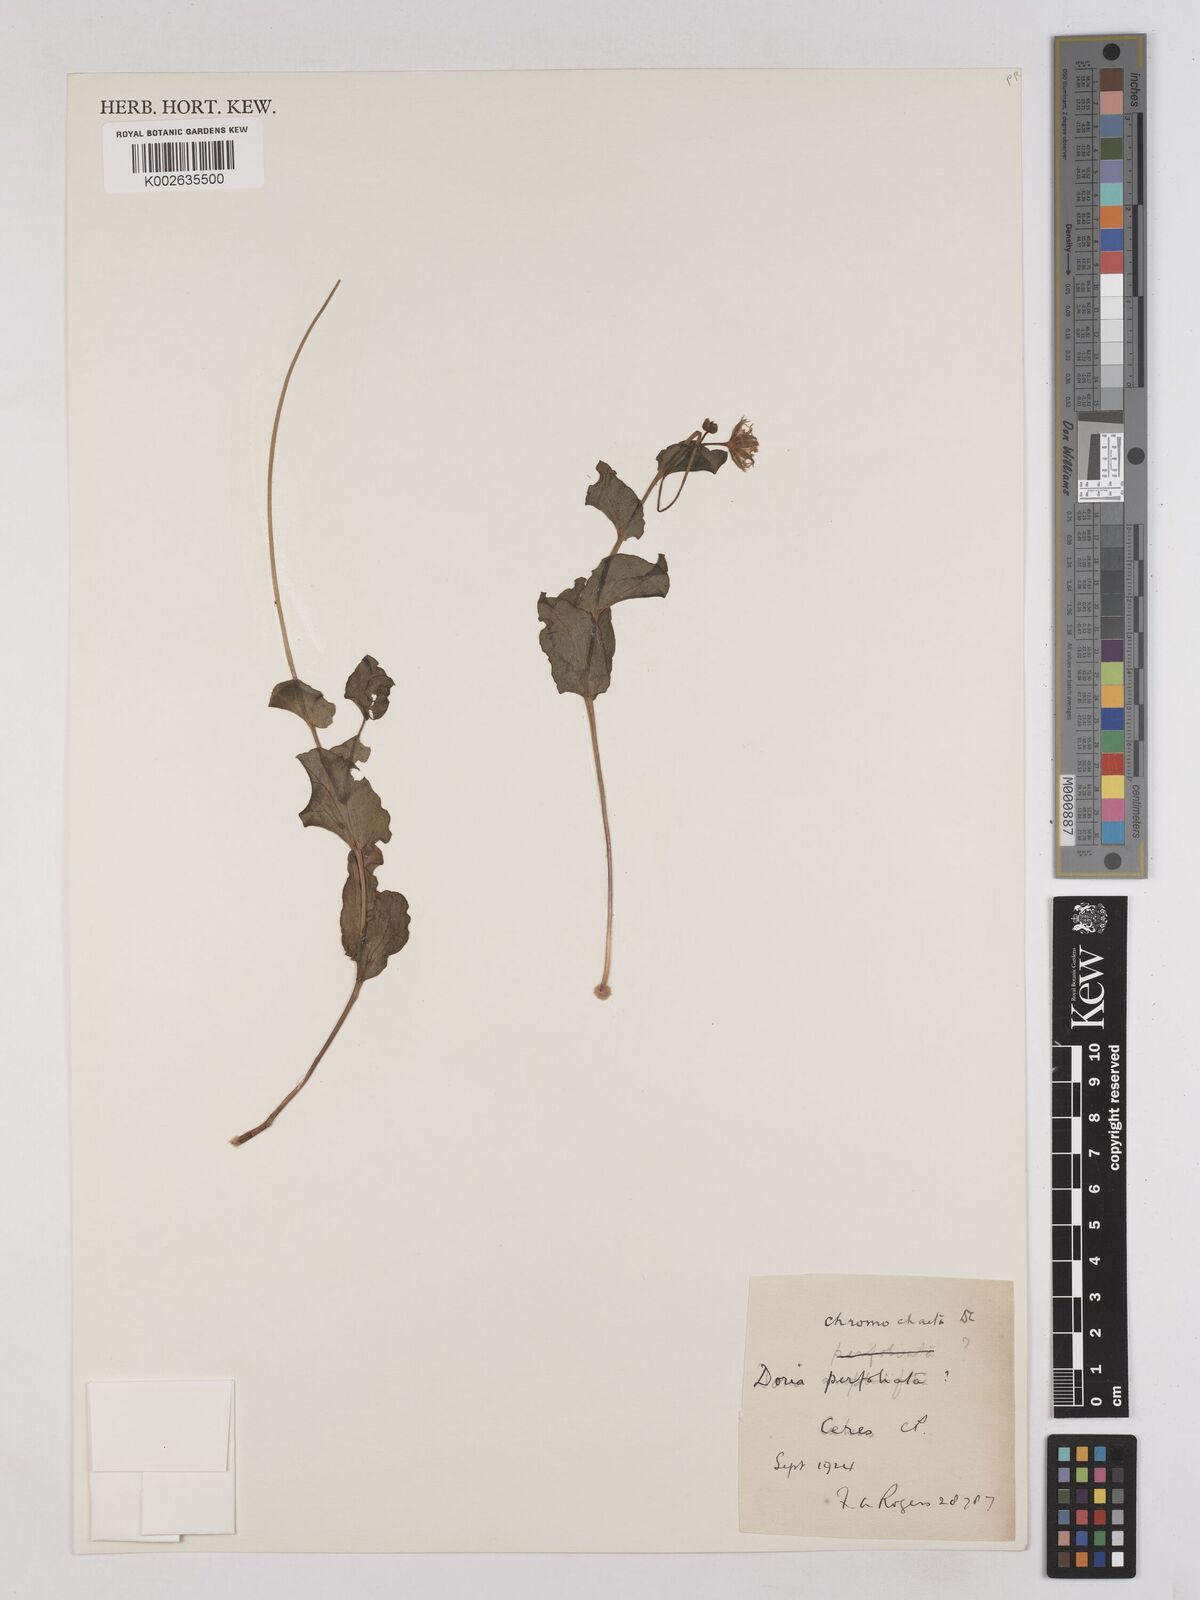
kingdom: Plantae
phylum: Tracheophyta
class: Magnoliopsida
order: Asterales
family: Asteraceae
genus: Othonna
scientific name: Othonna perfoliata
